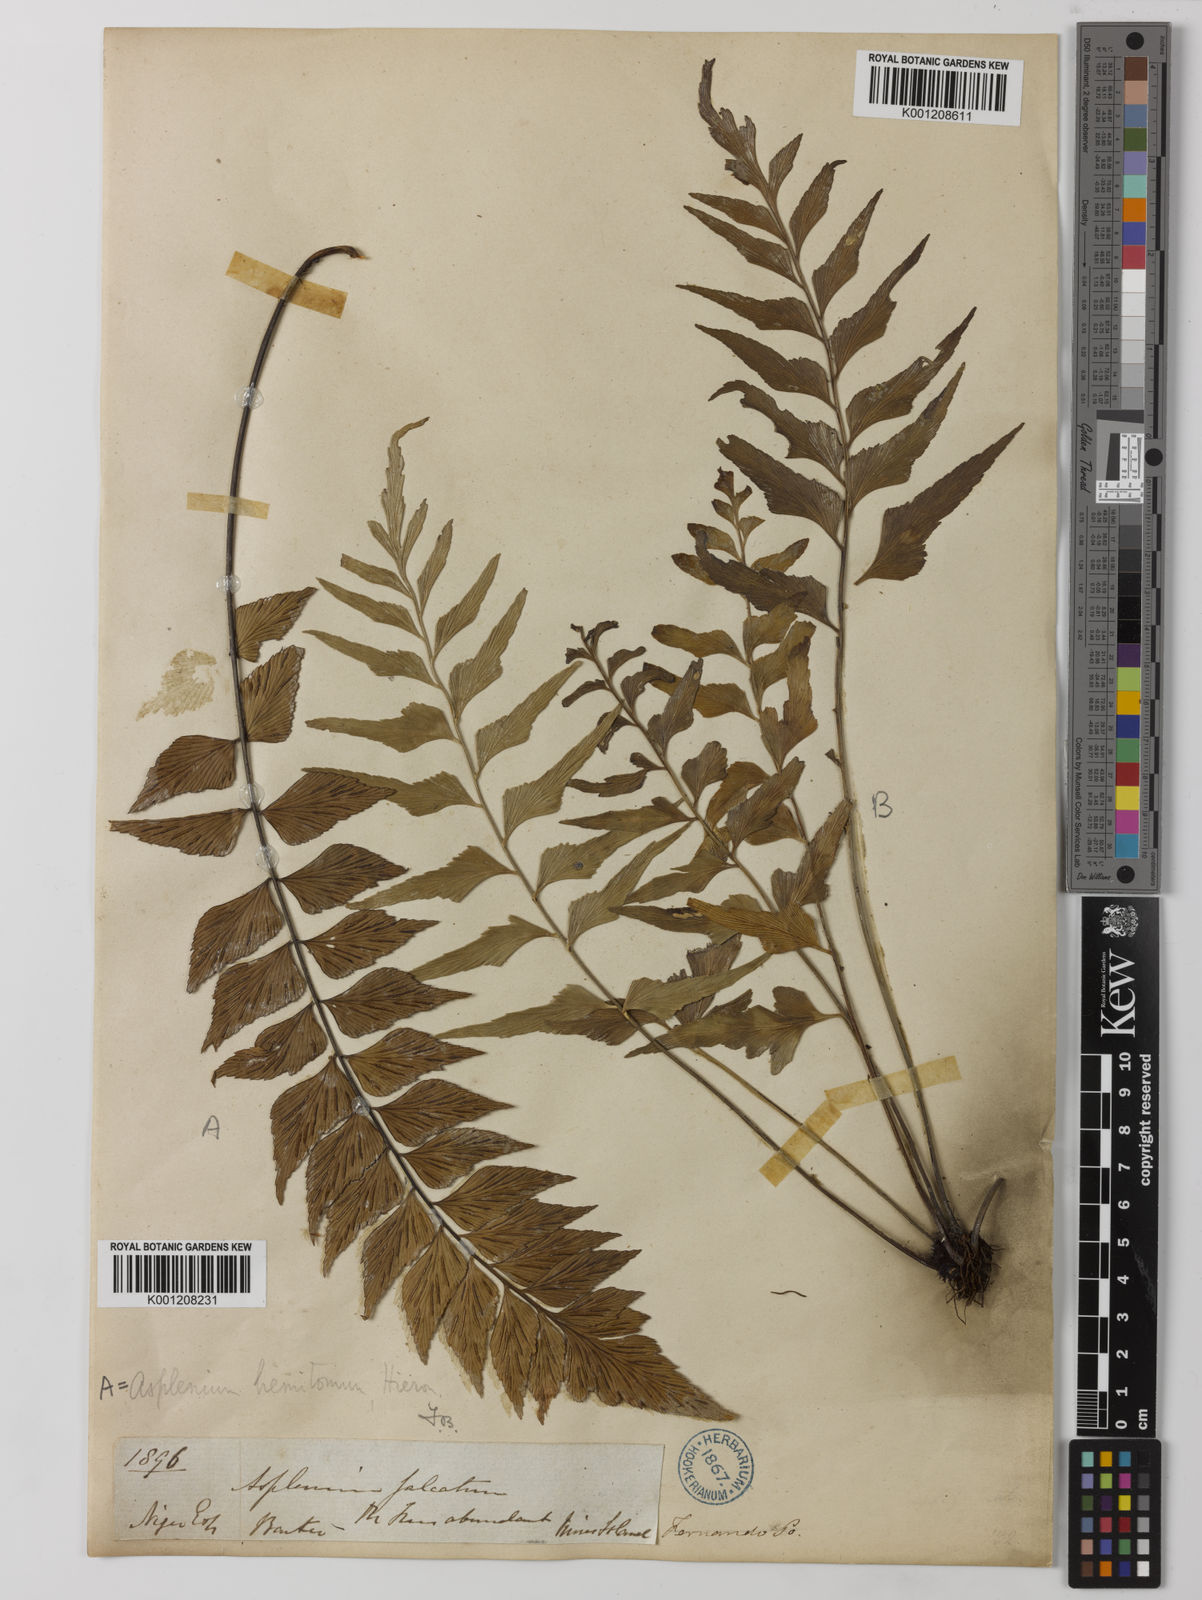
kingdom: Plantae
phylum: Tracheophyta
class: Polypodiopsida
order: Polypodiales
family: Aspleniaceae
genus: Asplenium
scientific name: Asplenium hemitomum
